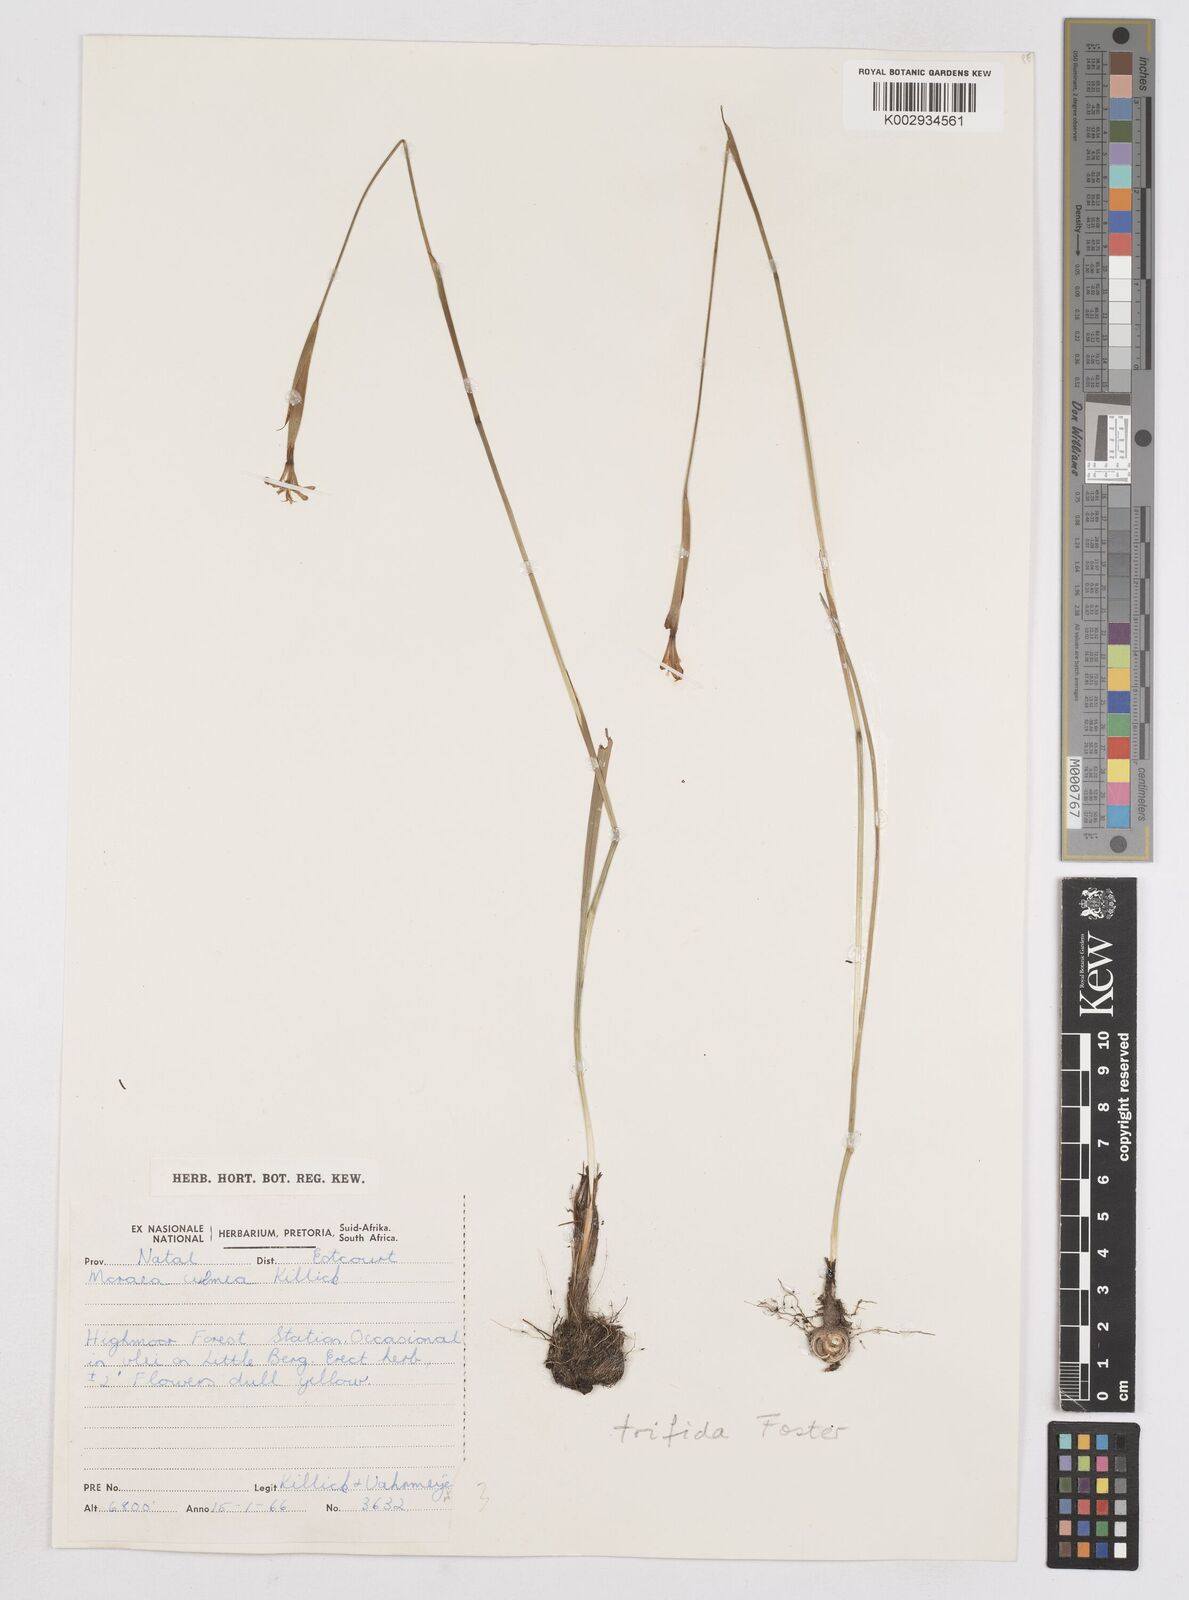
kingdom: Plantae
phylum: Tracheophyta
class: Liliopsida
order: Asparagales
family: Iridaceae
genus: Moraea
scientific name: Moraea trifida
